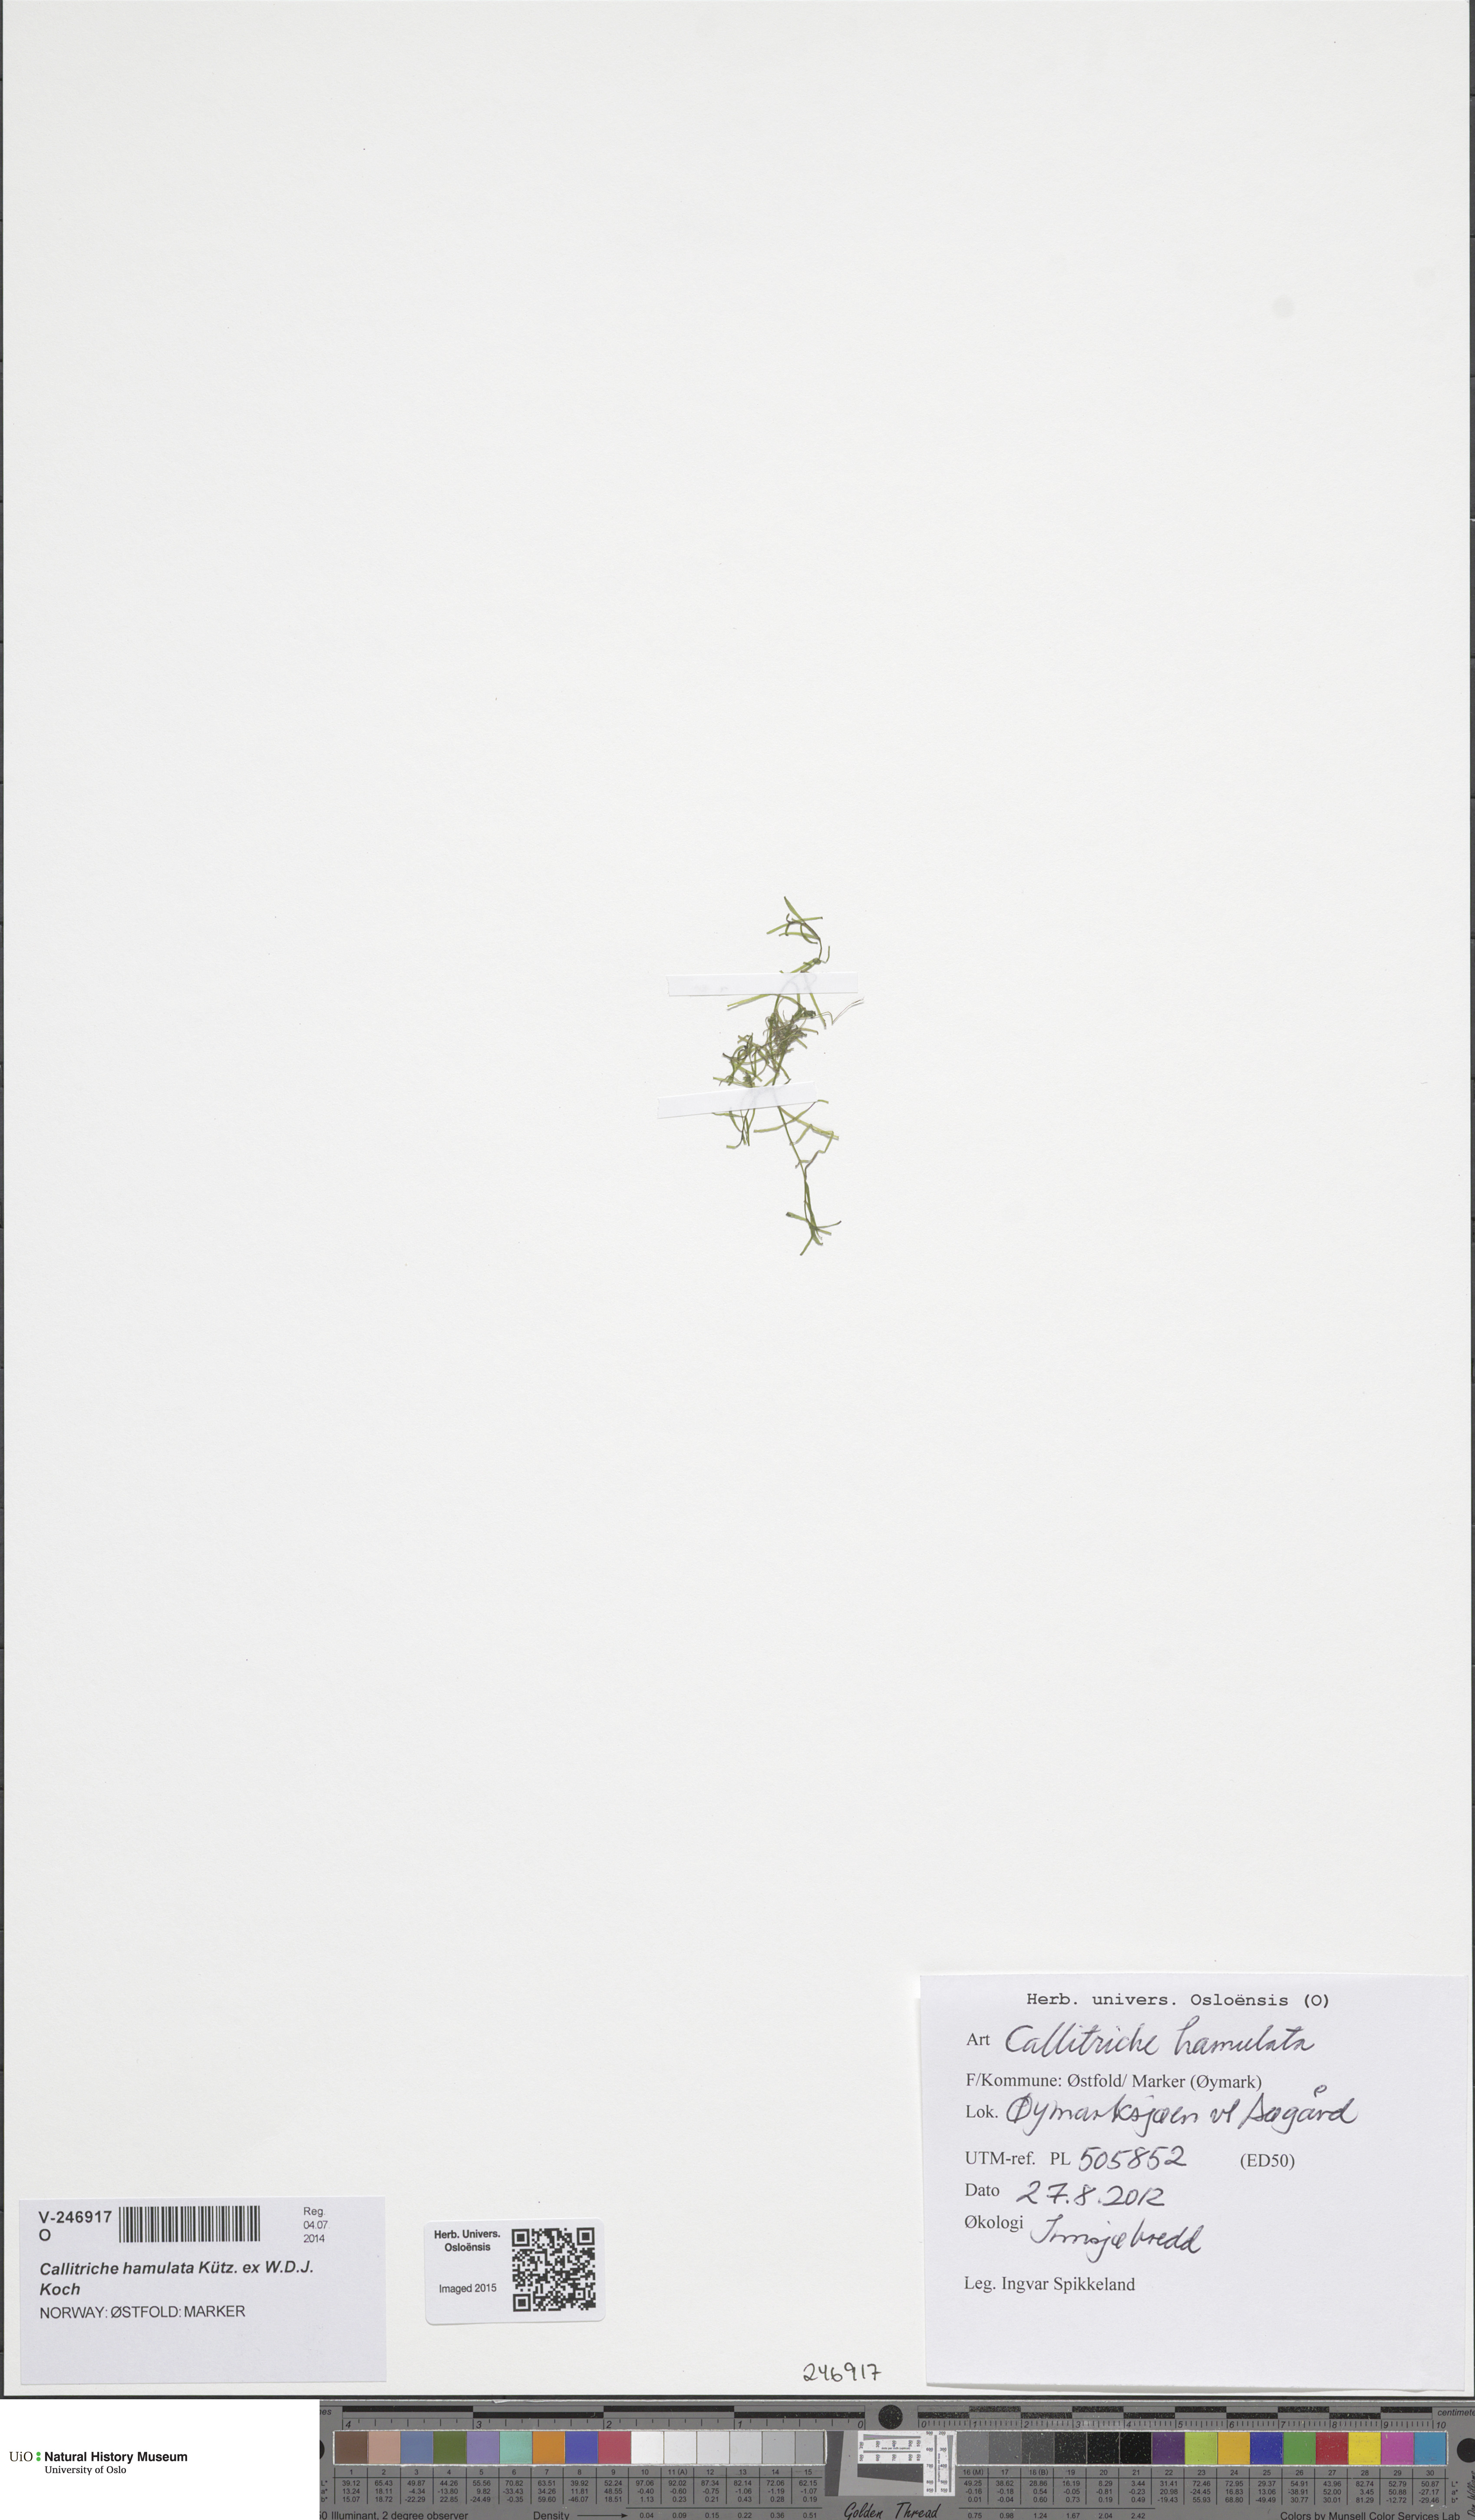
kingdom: Plantae
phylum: Tracheophyta
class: Magnoliopsida
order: Lamiales
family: Plantaginaceae
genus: Callitriche
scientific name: Callitriche hamulata
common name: Intermediate water-starwort
